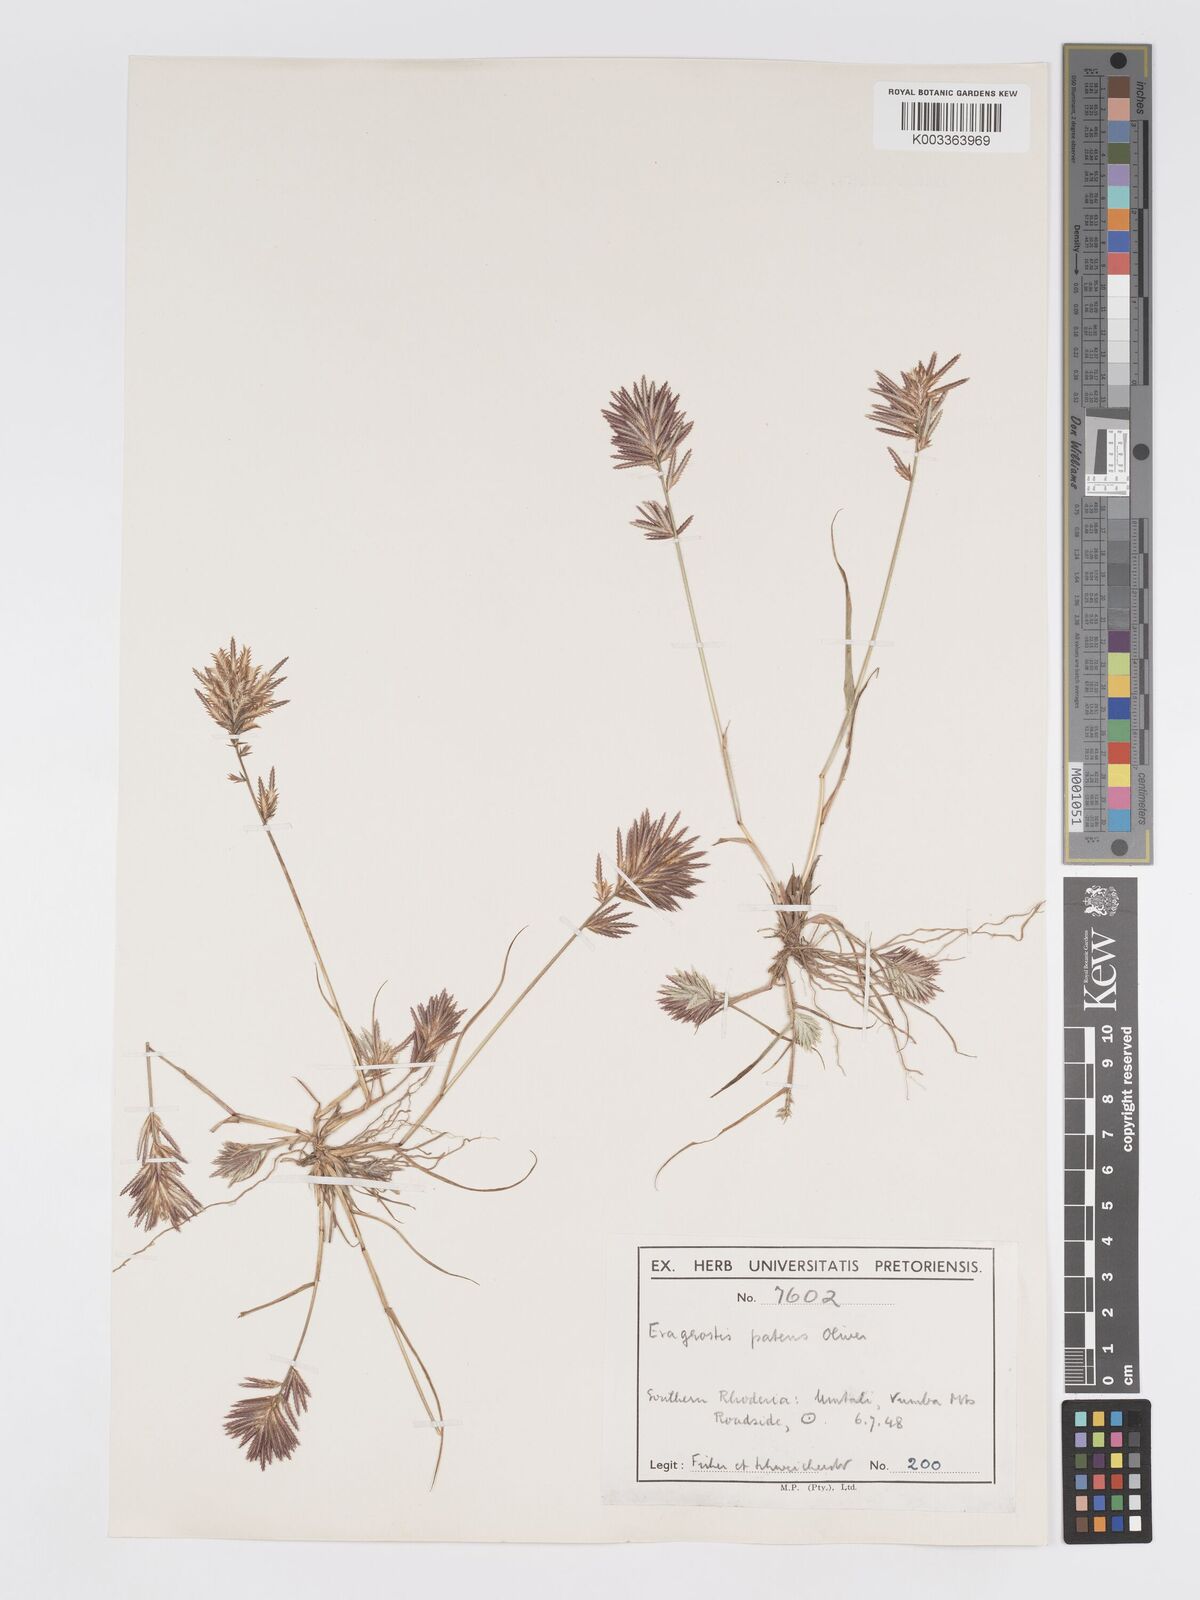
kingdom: Plantae
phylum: Tracheophyta
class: Liliopsida
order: Poales
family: Poaceae
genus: Eragrostis
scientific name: Eragrostis patens
